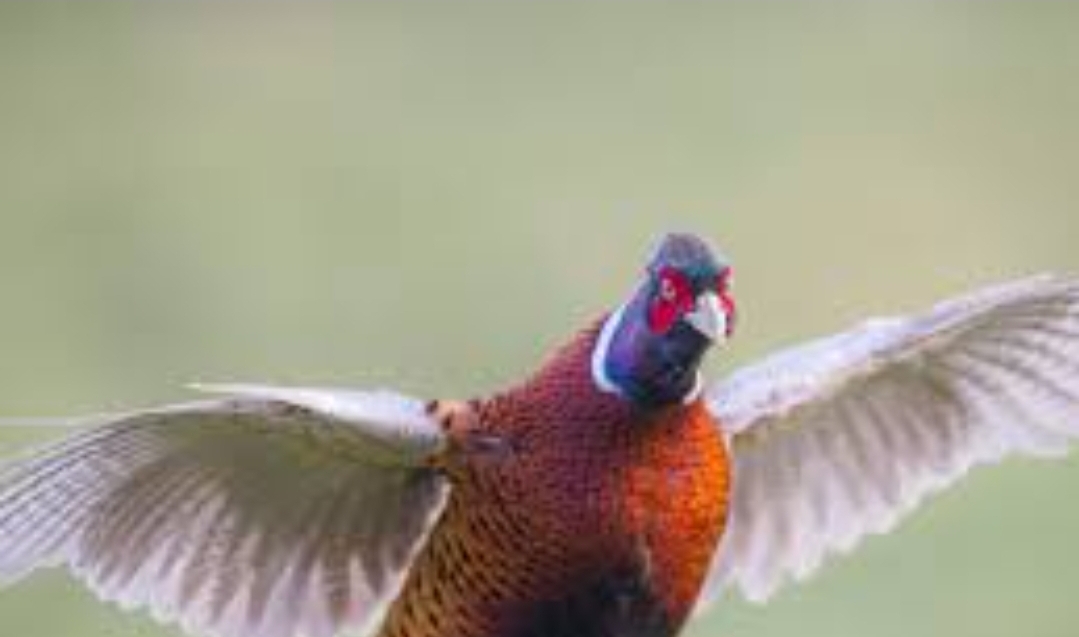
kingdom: Animalia
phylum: Chordata
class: Aves
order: Galliformes
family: Phasianidae
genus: Phasianus
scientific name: Phasianus colchicus
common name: Fasan
